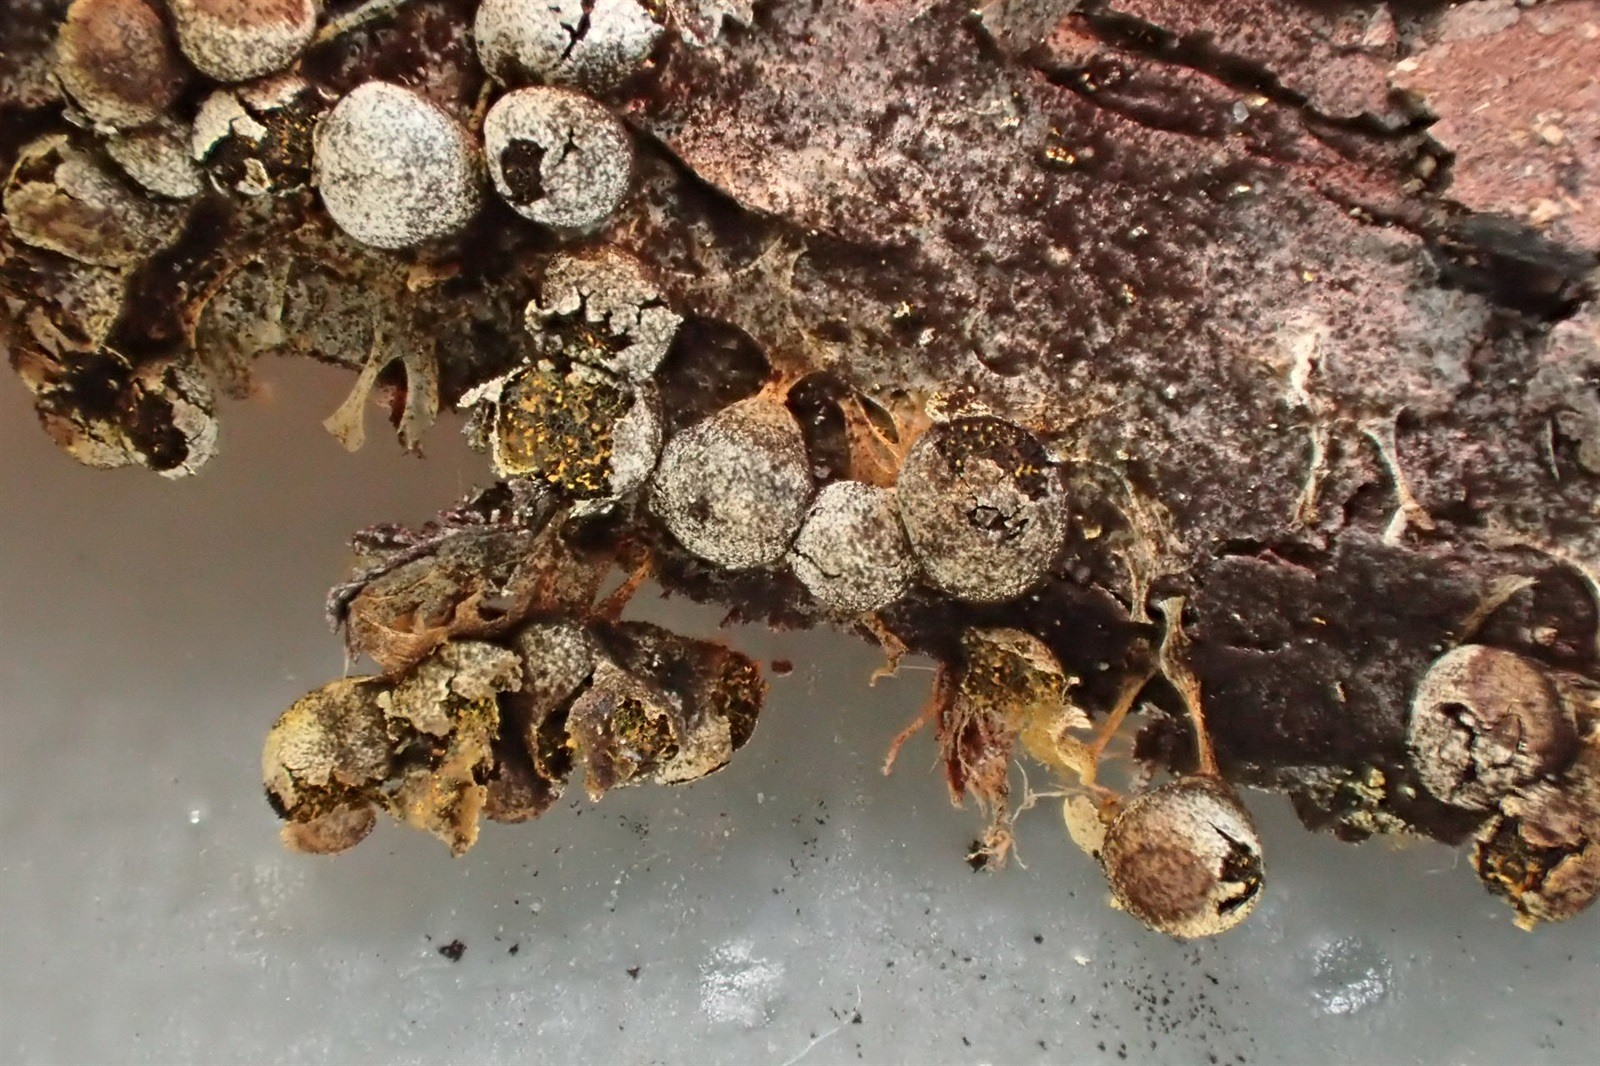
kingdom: Protozoa
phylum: Mycetozoa
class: Myxomycetes
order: Physarales
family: Physaraceae
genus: Physarum
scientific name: Physarum albescens
